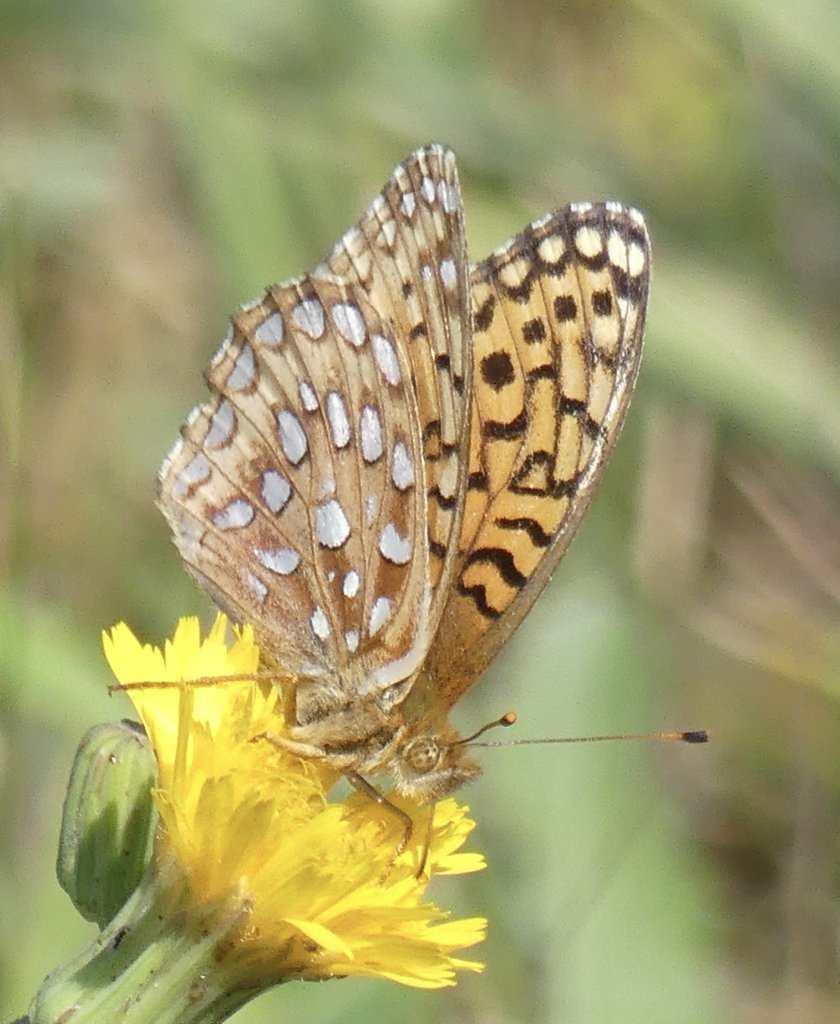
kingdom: Animalia
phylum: Arthropoda
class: Insecta
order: Lepidoptera
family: Nymphalidae
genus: Speyeria
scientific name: Speyeria
